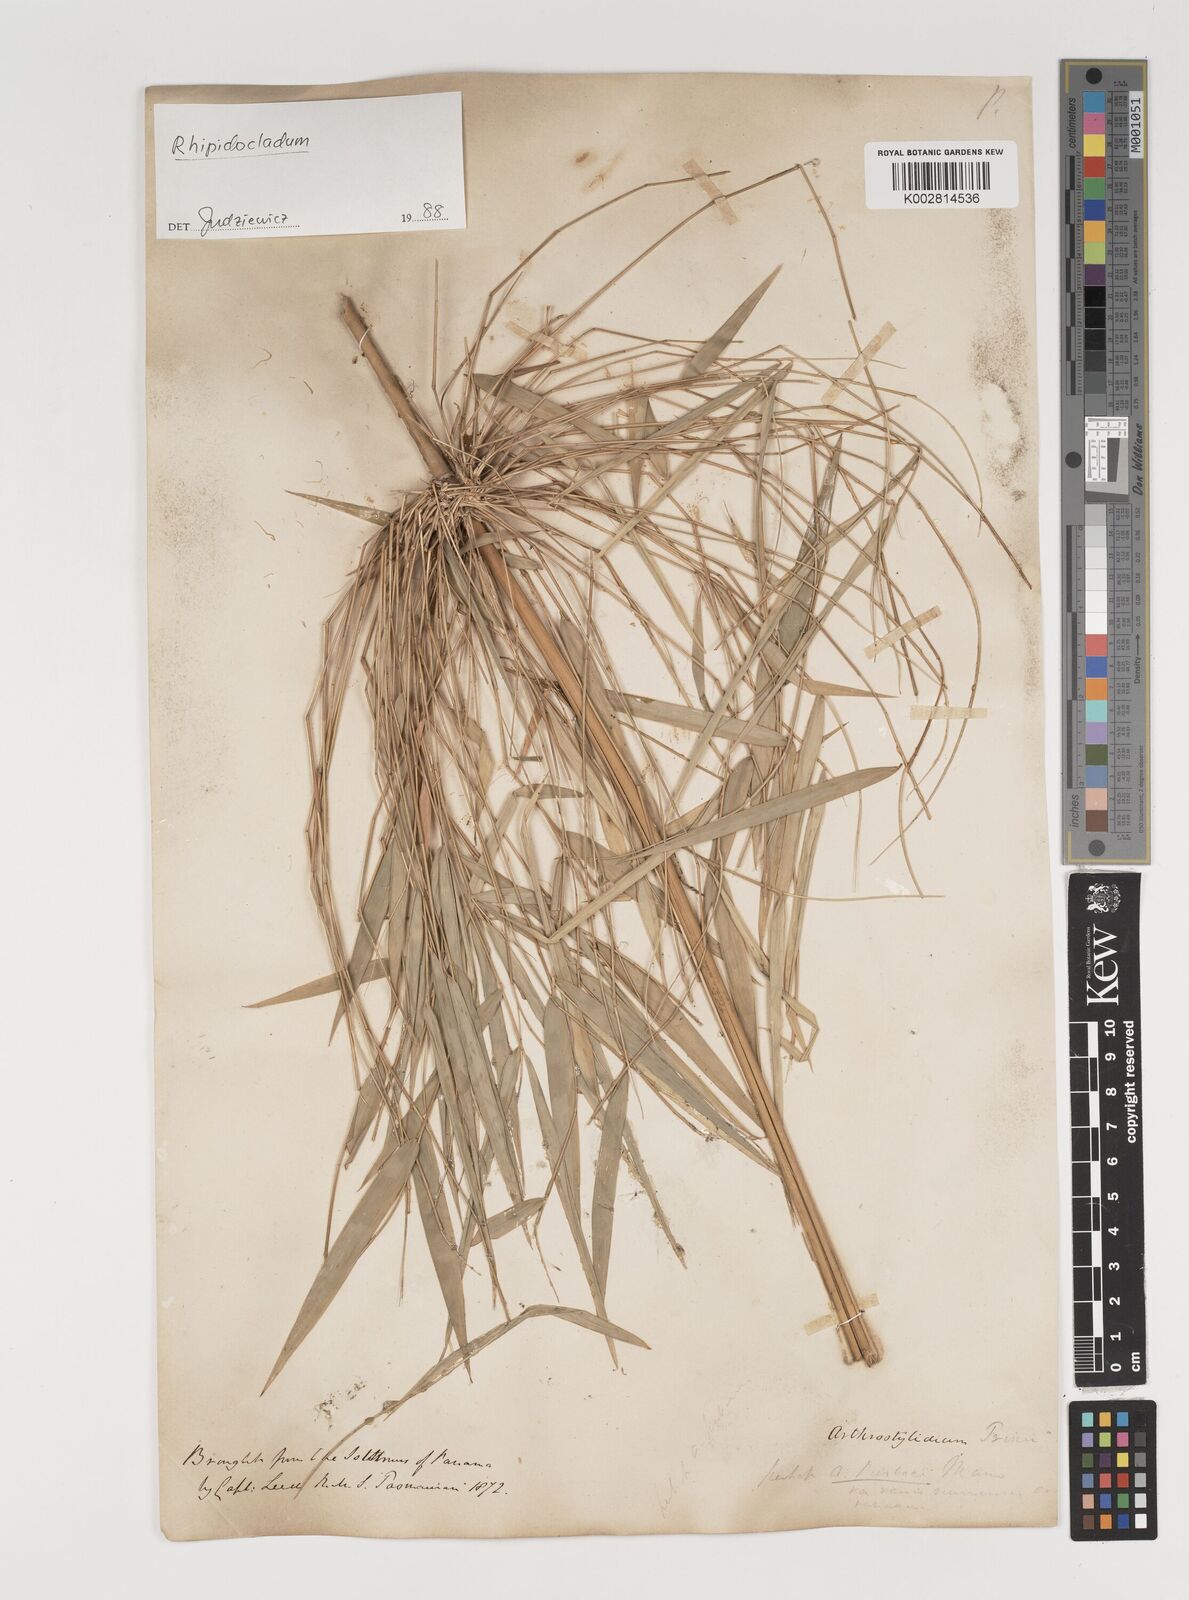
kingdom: Plantae
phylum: Tracheophyta
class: Liliopsida
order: Poales
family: Poaceae
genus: Rhipidocladum
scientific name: Rhipidocladum
